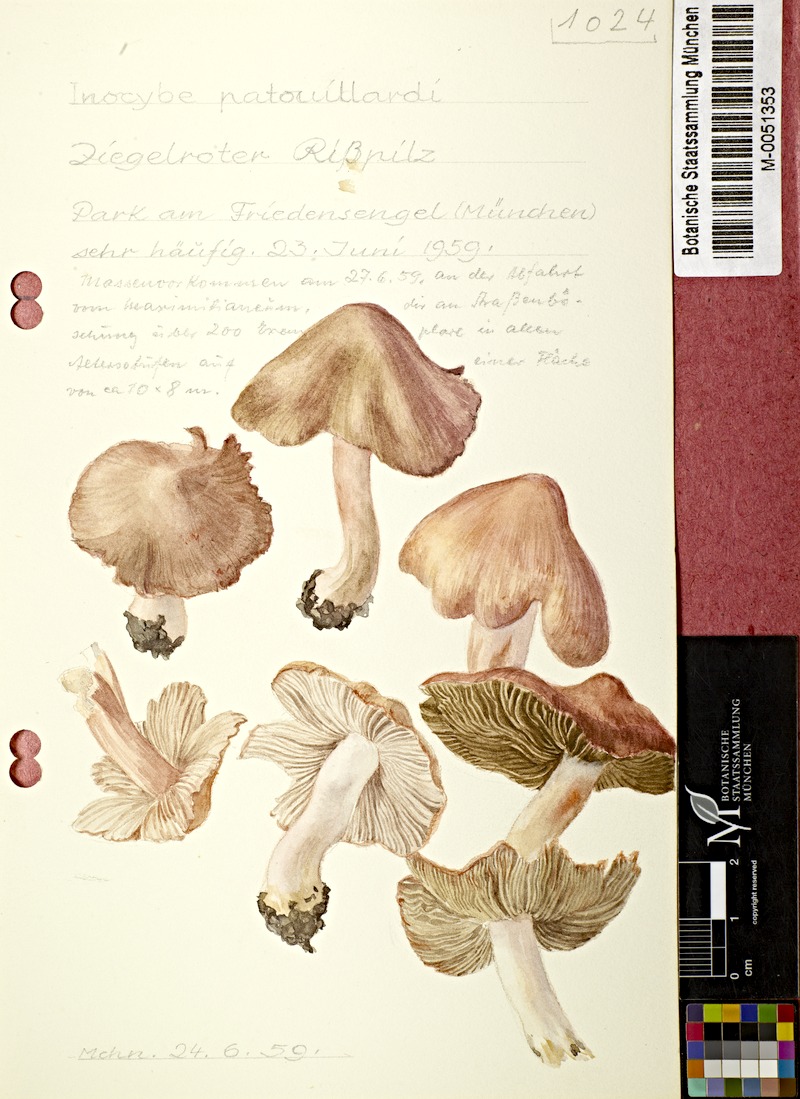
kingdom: Fungi
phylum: Basidiomycota
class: Agaricomycetes
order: Agaricales
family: Inocybaceae
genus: Inosperma
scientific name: Inosperma erubescens
